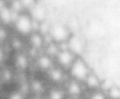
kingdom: Animalia
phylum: Chordata
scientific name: Chordata
